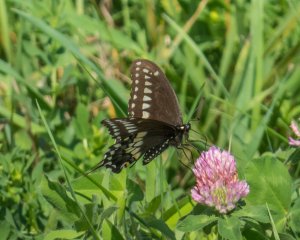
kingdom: Animalia
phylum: Arthropoda
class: Insecta
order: Lepidoptera
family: Papilionidae
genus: Papilio
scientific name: Papilio polyxenes
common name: Black Swallowtail
